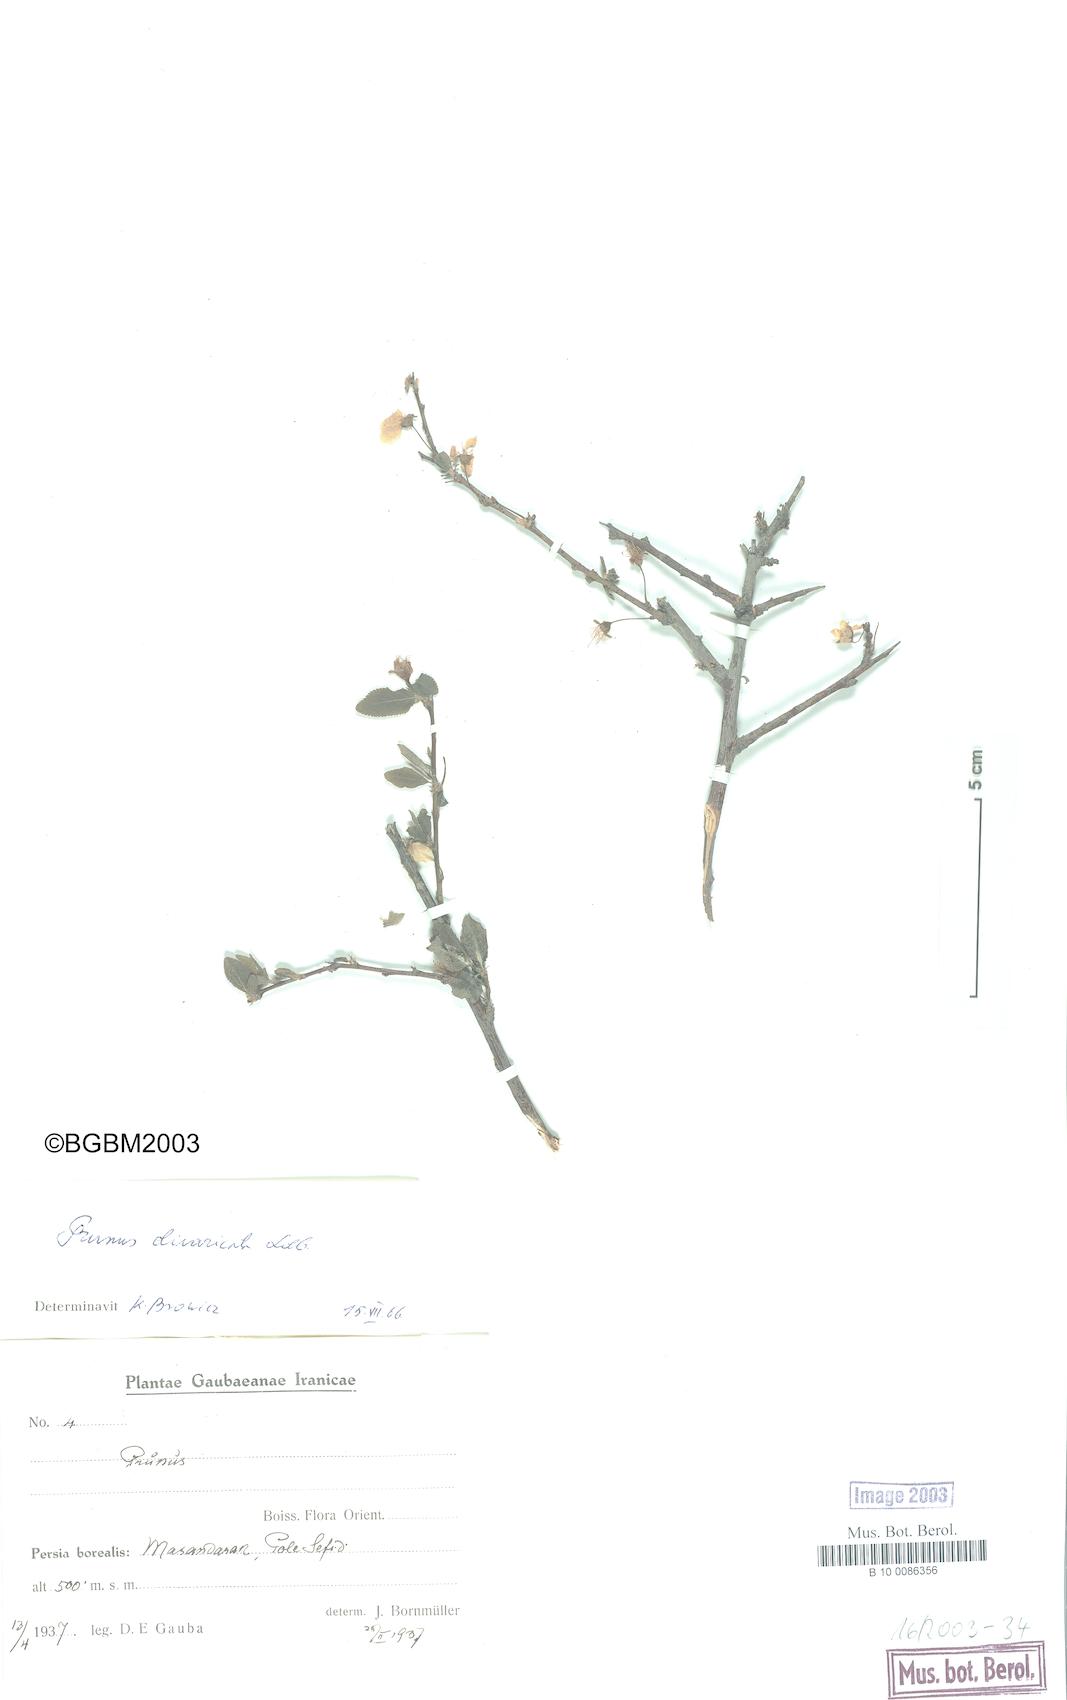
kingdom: Plantae
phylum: Tracheophyta
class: Magnoliopsida
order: Rosales
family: Rosaceae
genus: Prunus
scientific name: Prunus cerasifera
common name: Cherry plum
